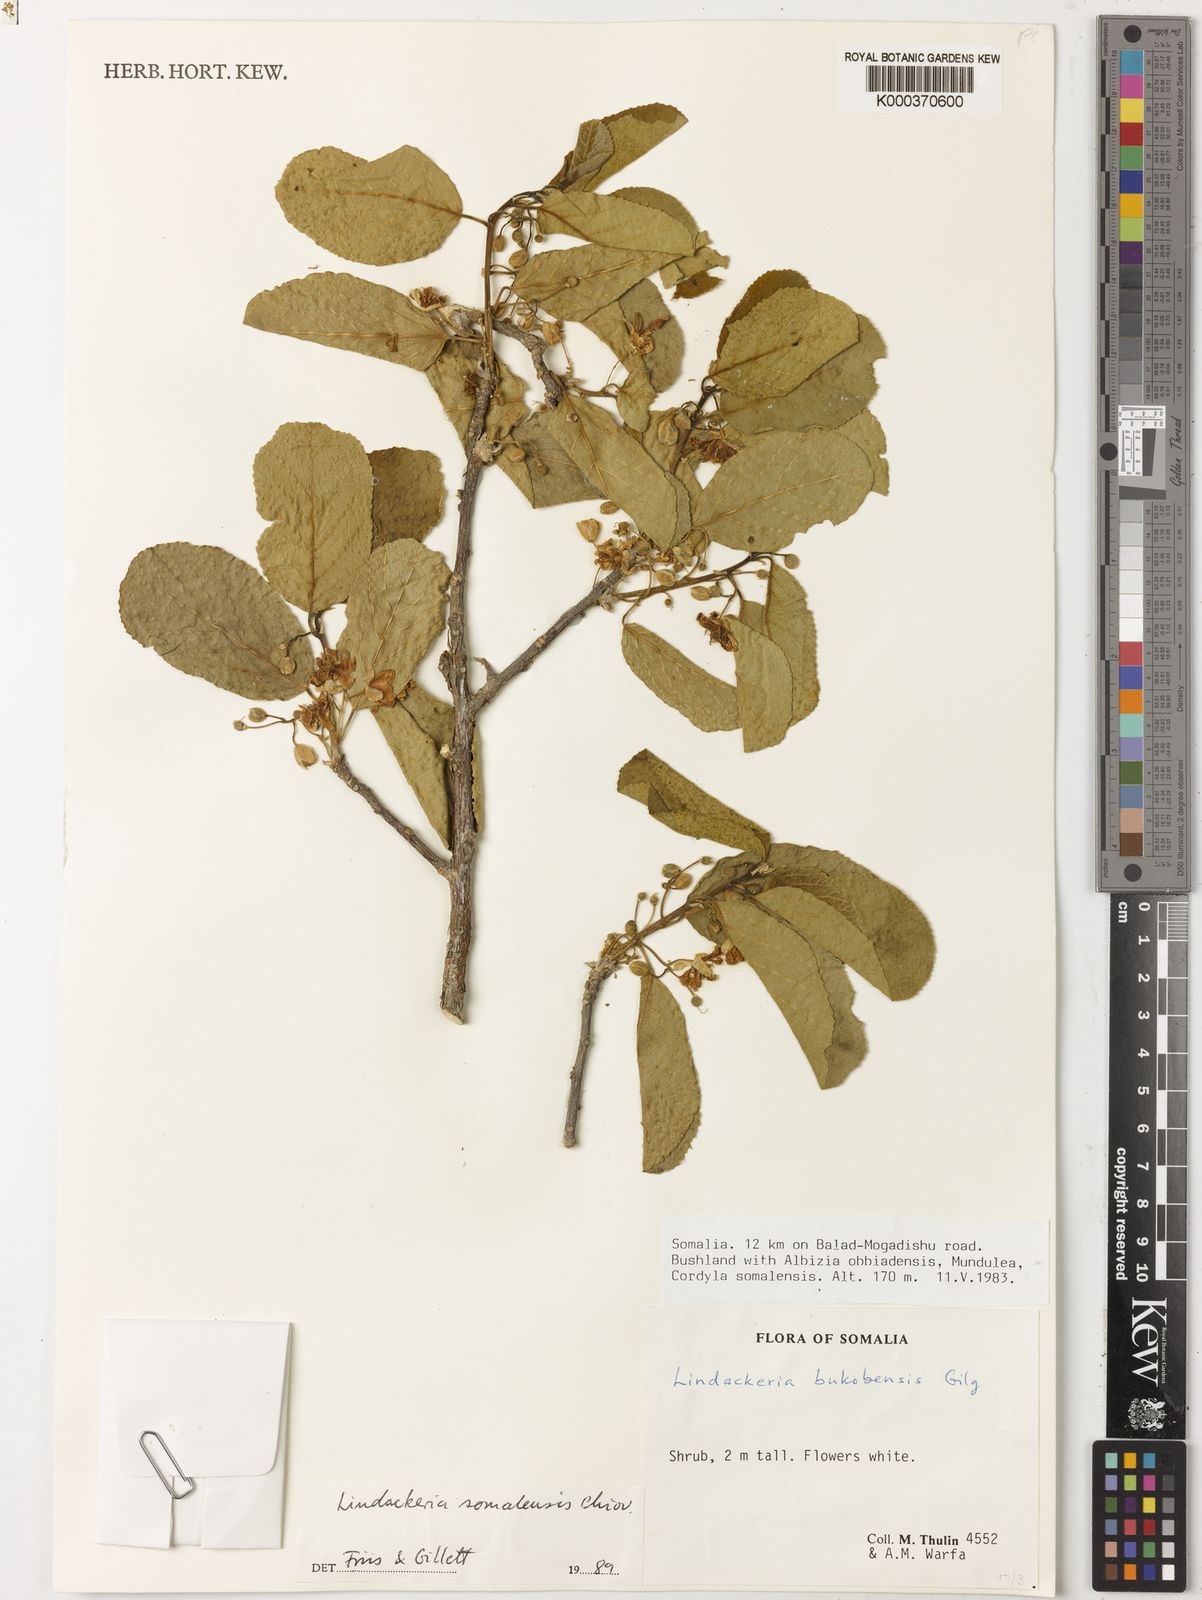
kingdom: Plantae
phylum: Tracheophyta
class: Magnoliopsida
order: Malpighiales
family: Achariaceae
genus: Lindackeria
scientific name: Lindackeria somalensis
